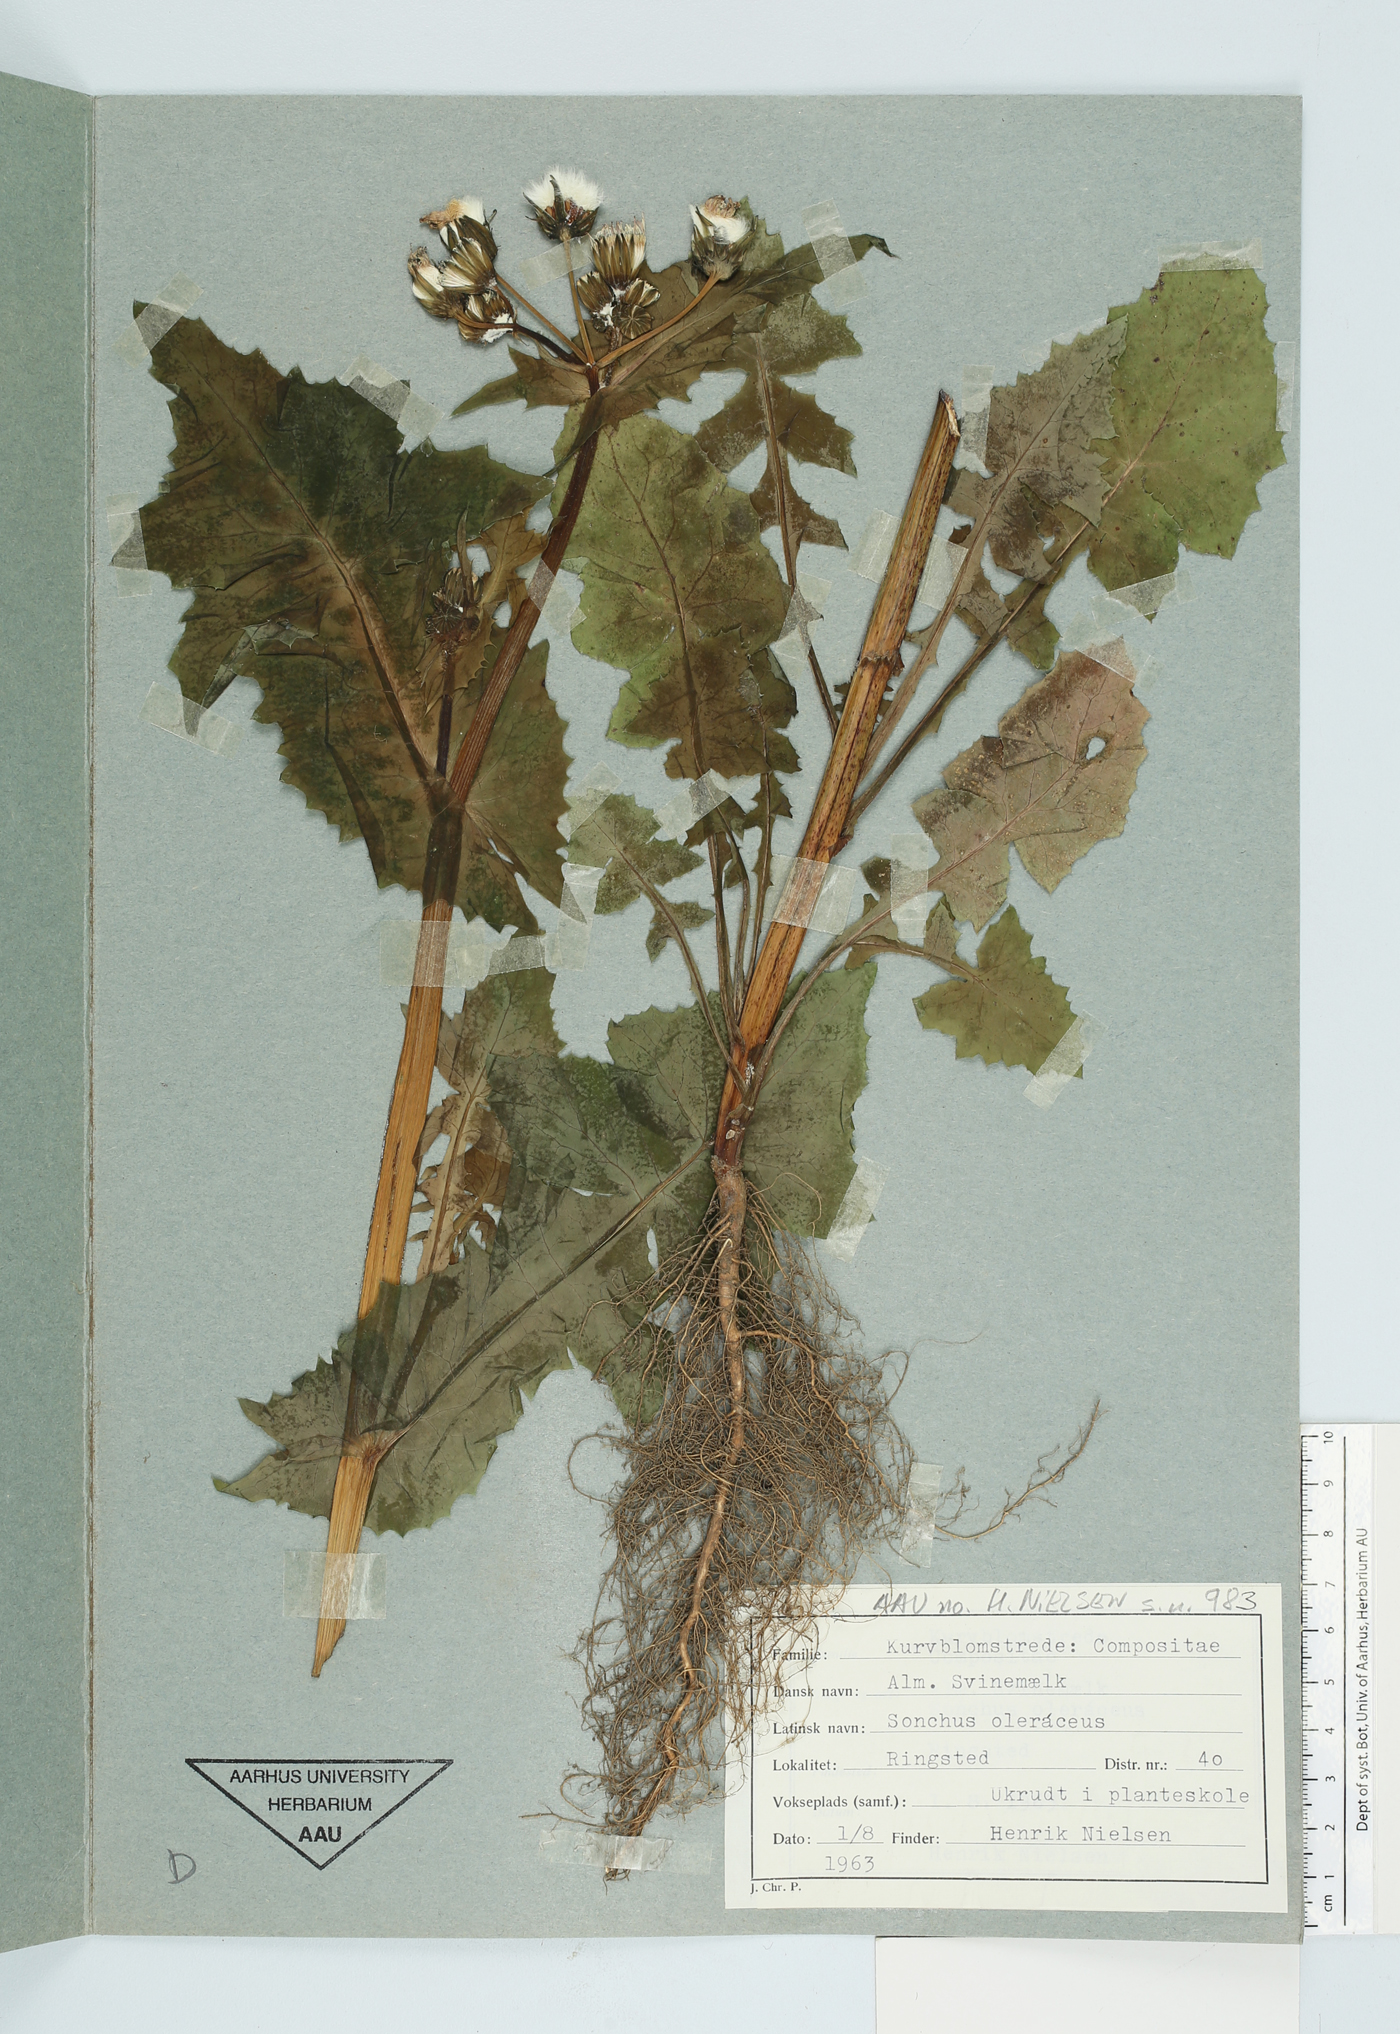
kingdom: Plantae
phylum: Tracheophyta
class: Magnoliopsida
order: Asterales
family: Asteraceae
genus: Sonchus
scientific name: Sonchus oleraceus
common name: Common sowthistle
